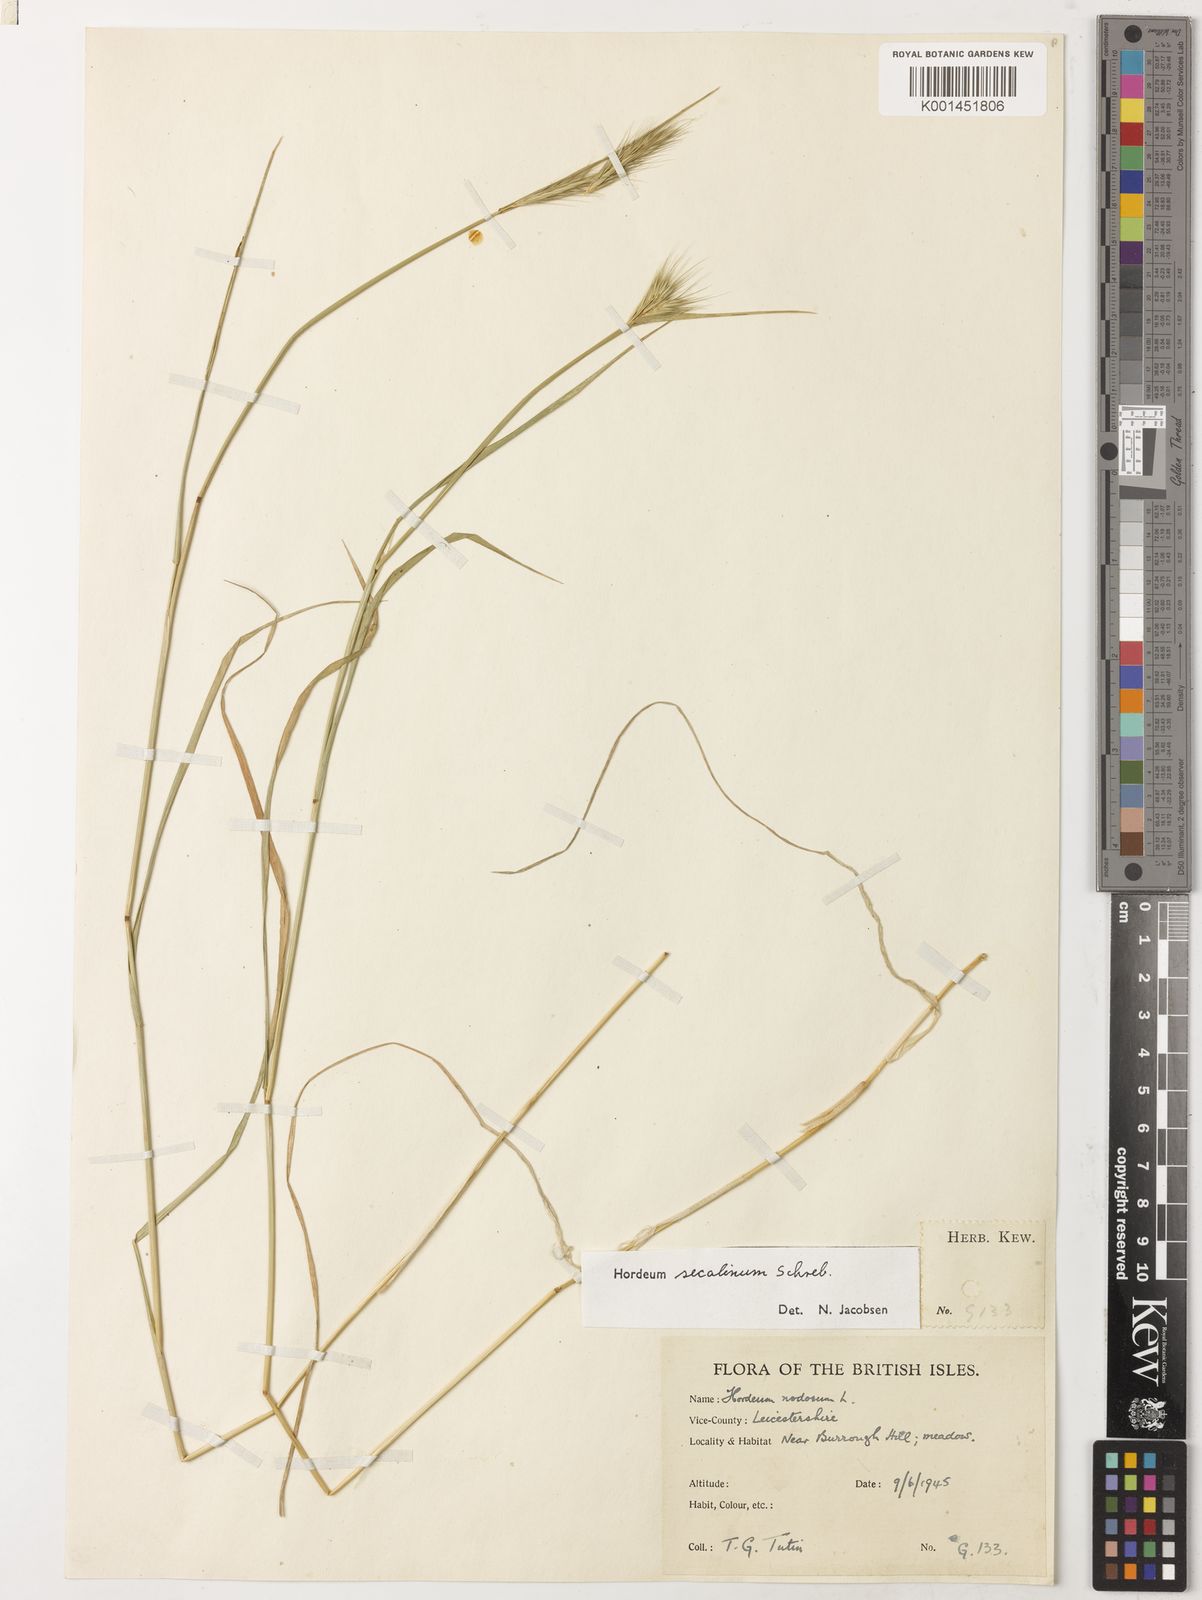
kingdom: Plantae
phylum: Tracheophyta
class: Liliopsida
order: Poales
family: Poaceae
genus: Hordeum
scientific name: Hordeum secalinum
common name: Meadow barley
